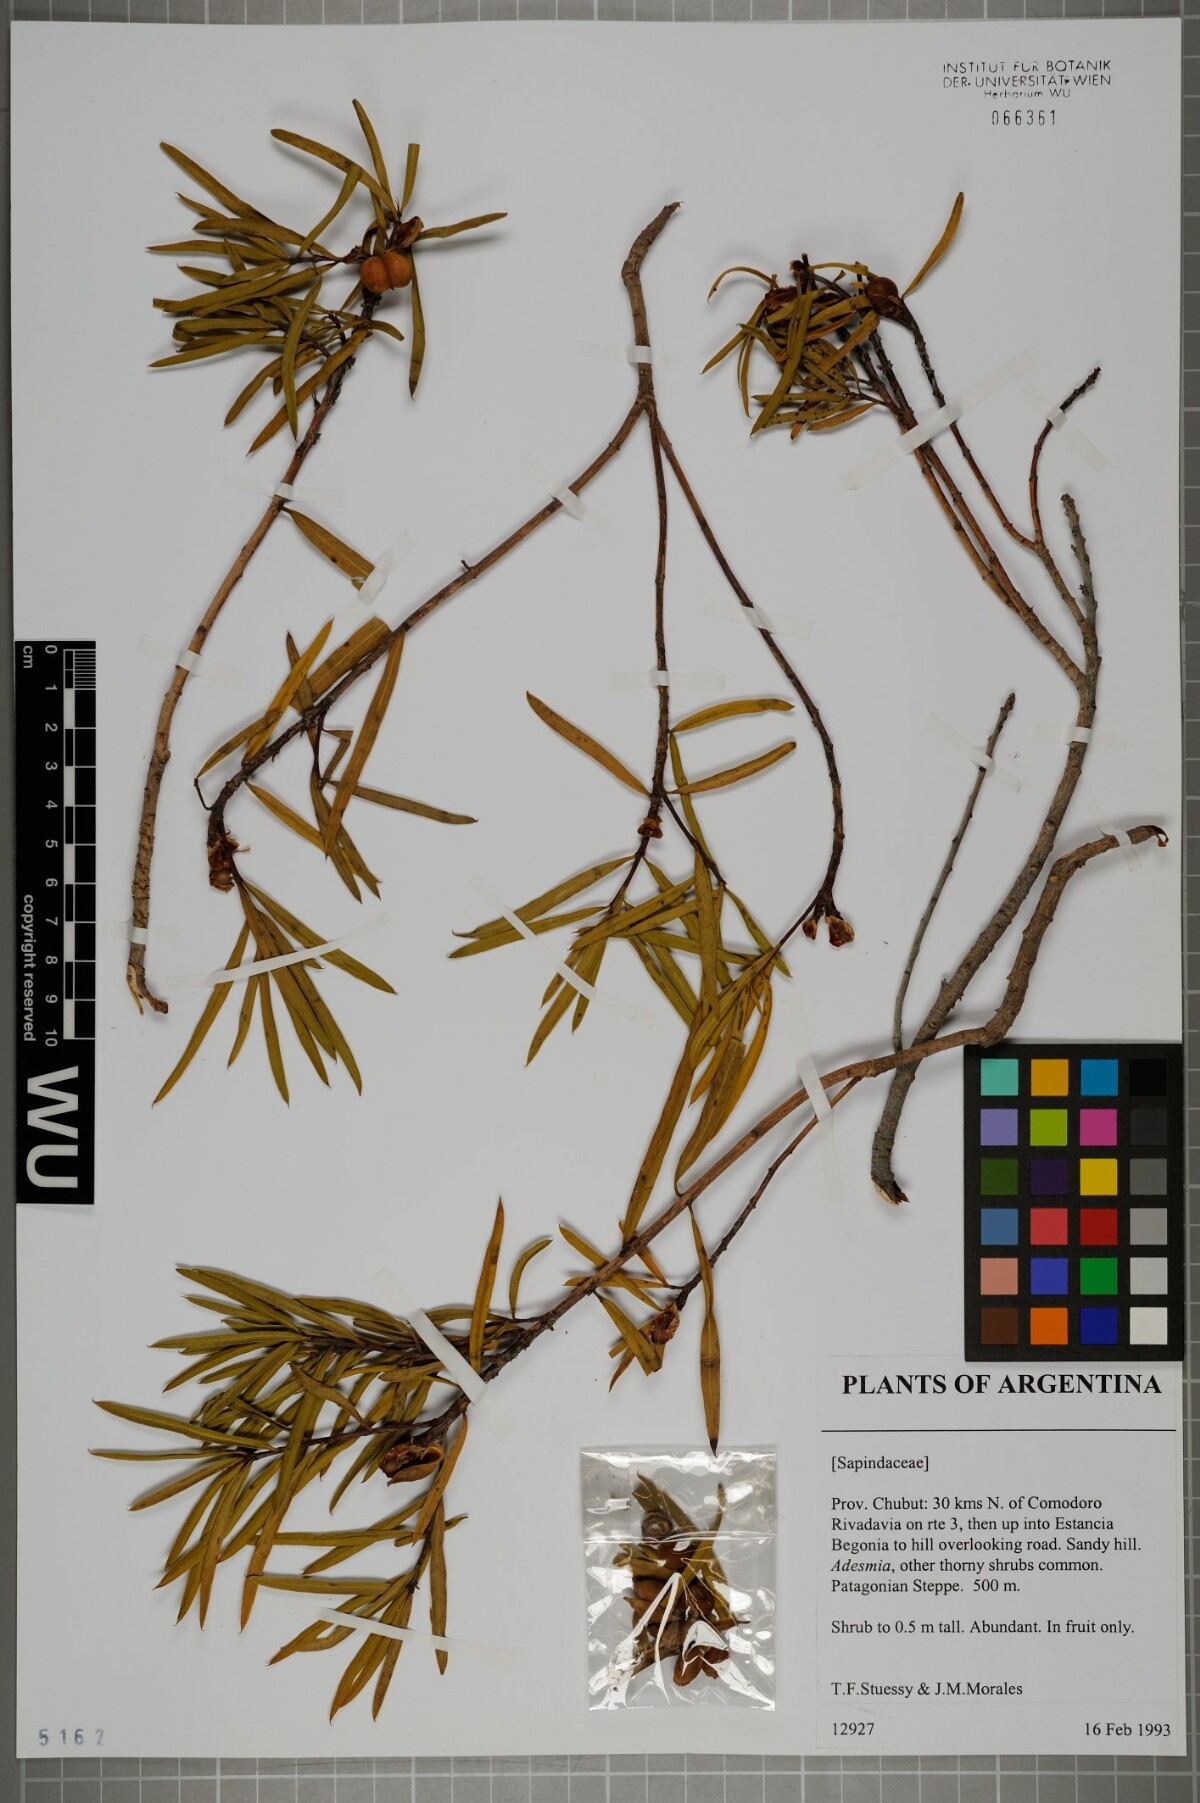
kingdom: Plantae
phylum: Tracheophyta
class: Magnoliopsida
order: Sapindales
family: Sapindaceae
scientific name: Sapindaceae
